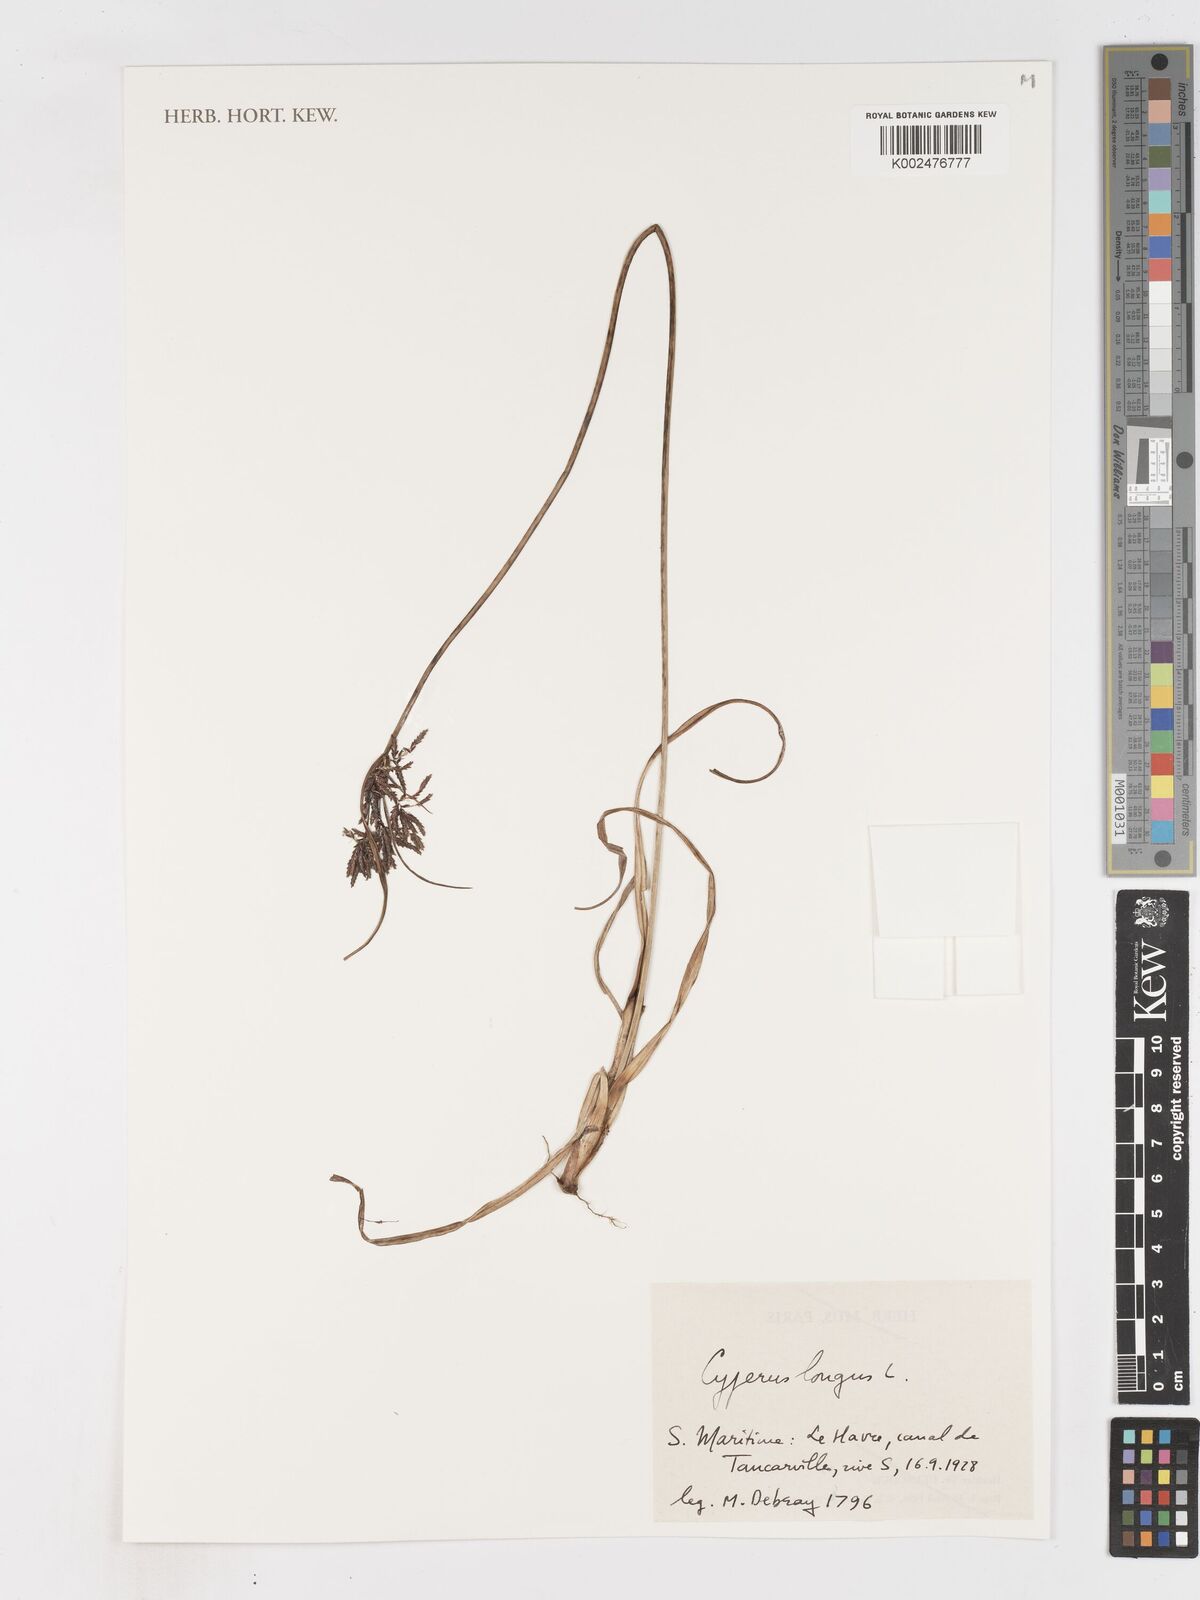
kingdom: Plantae
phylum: Tracheophyta
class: Liliopsida
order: Poales
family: Cyperaceae
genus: Cyperus
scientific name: Cyperus longus
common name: Galingale
